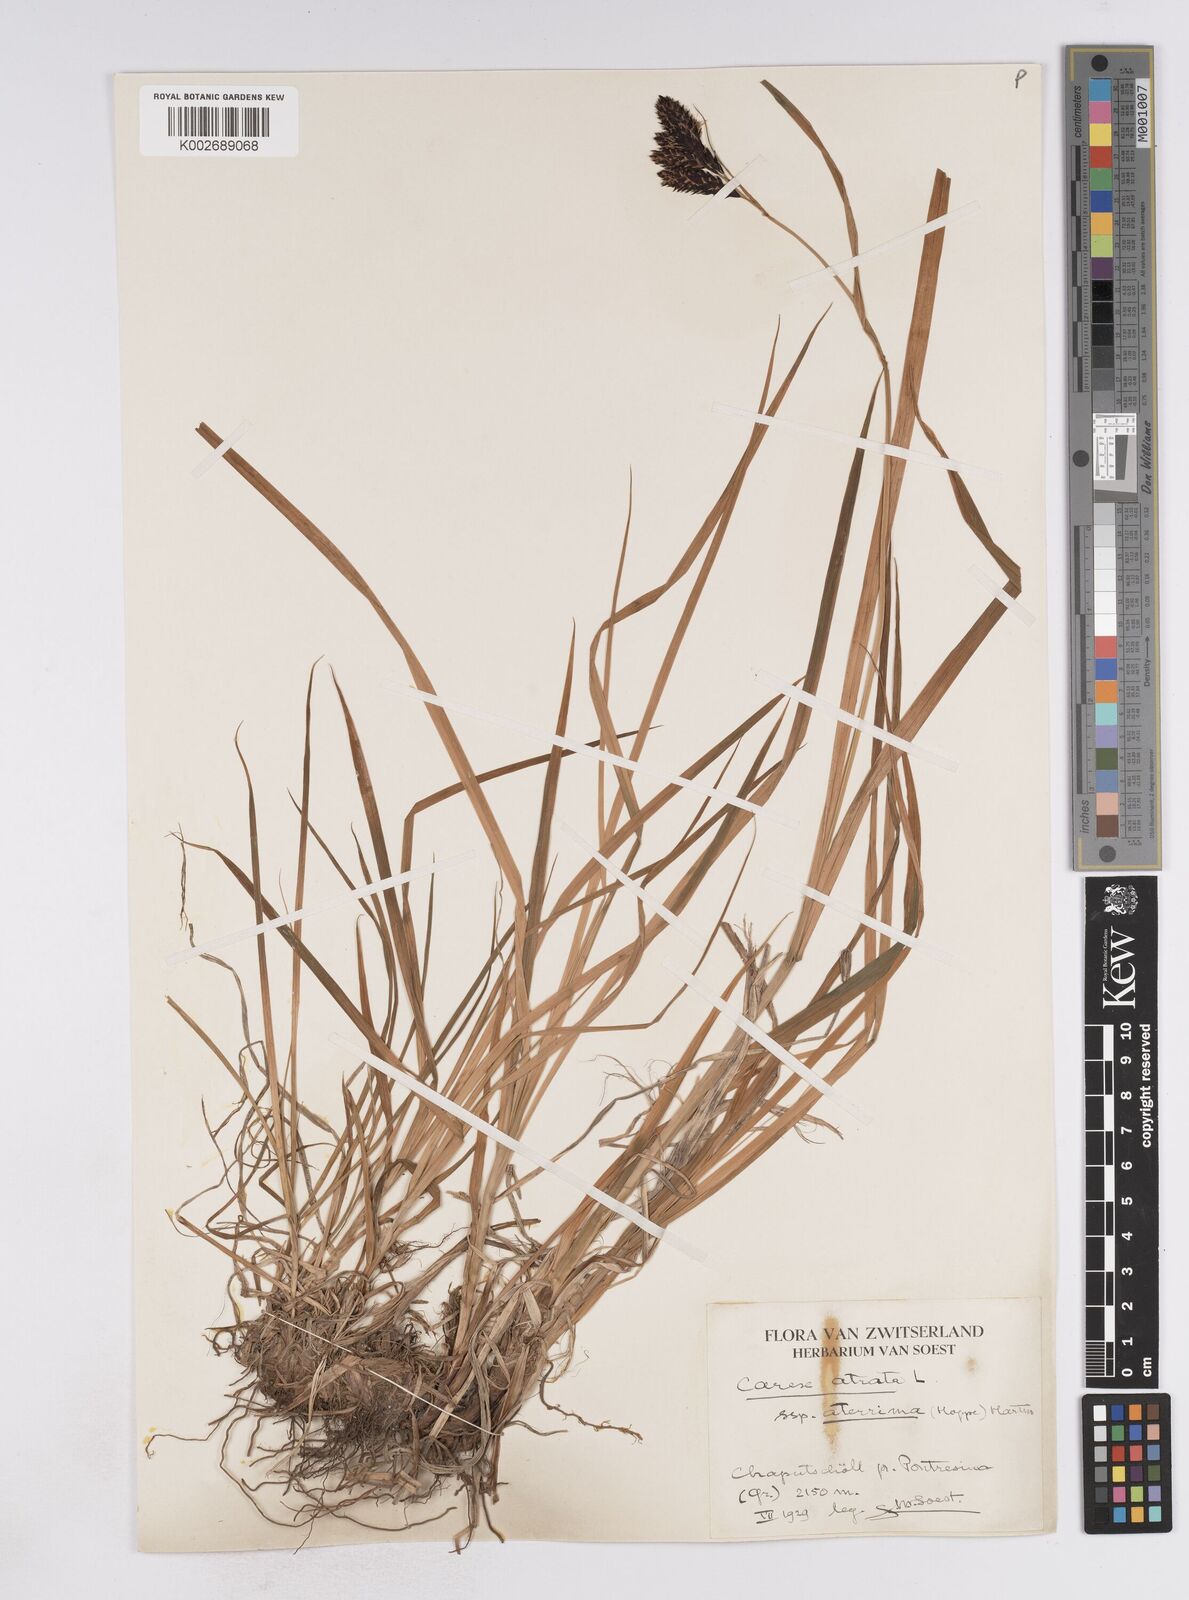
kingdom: Plantae
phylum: Tracheophyta
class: Liliopsida
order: Poales
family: Cyperaceae
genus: Carex
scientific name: Carex atrata
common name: Black alpine sedge
